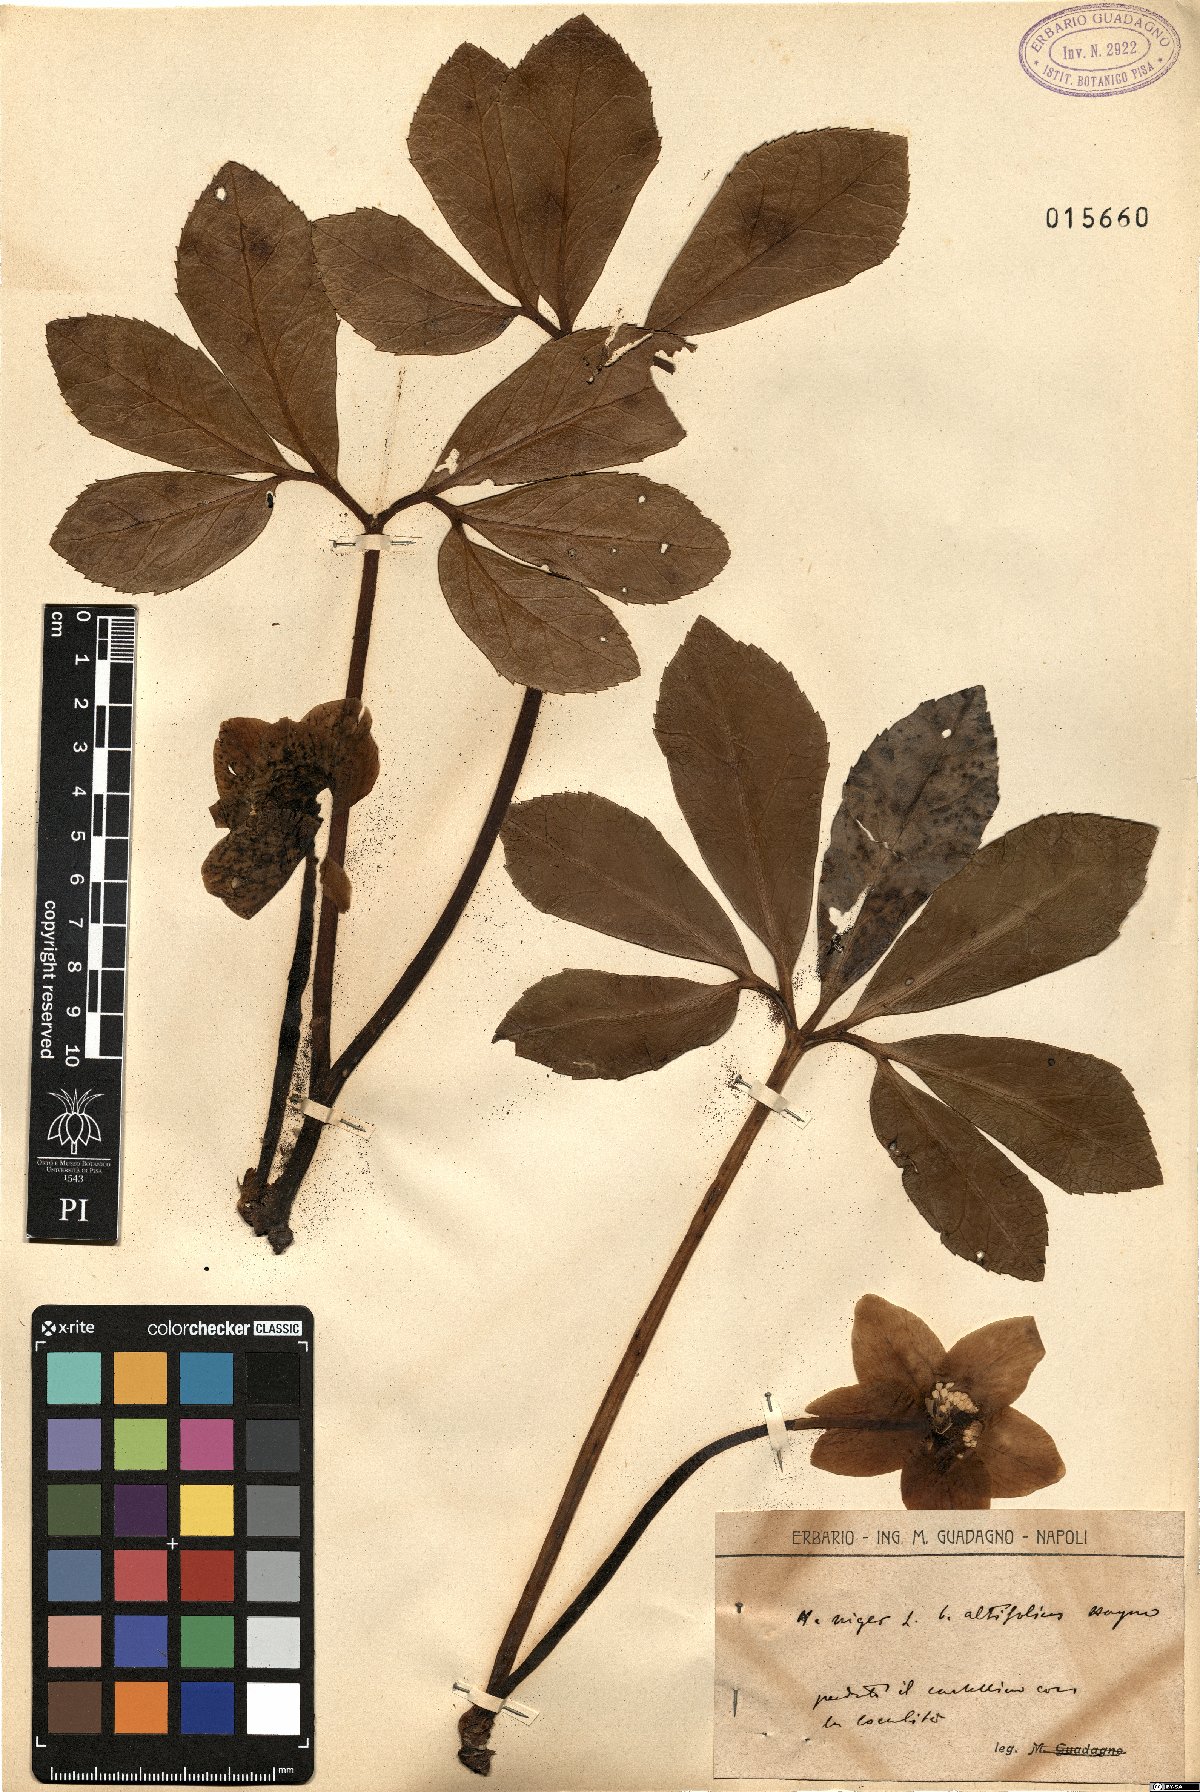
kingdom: Plantae
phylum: Tracheophyta
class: Magnoliopsida
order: Ranunculales
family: Ranunculaceae
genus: Helleborus
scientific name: Helleborus niger
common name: Black hellebore
